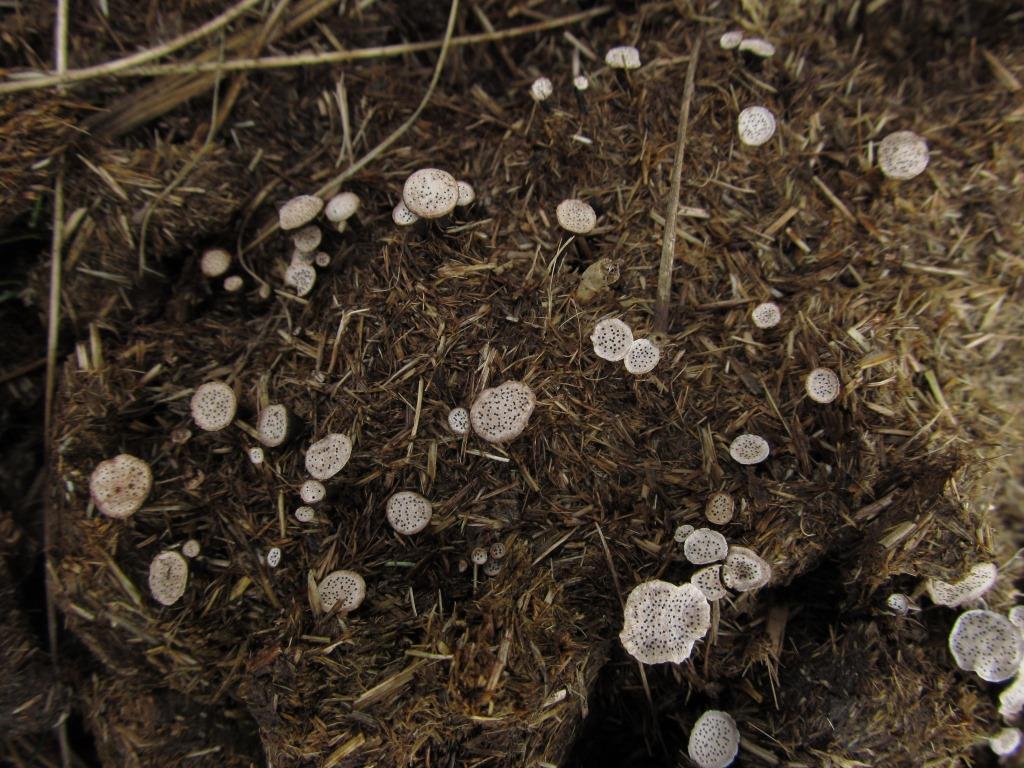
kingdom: Fungi
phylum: Ascomycota
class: Sordariomycetes
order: Xylariales
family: Xylariaceae
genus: Poronia
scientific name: Poronia punctata
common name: stor priksvamp
